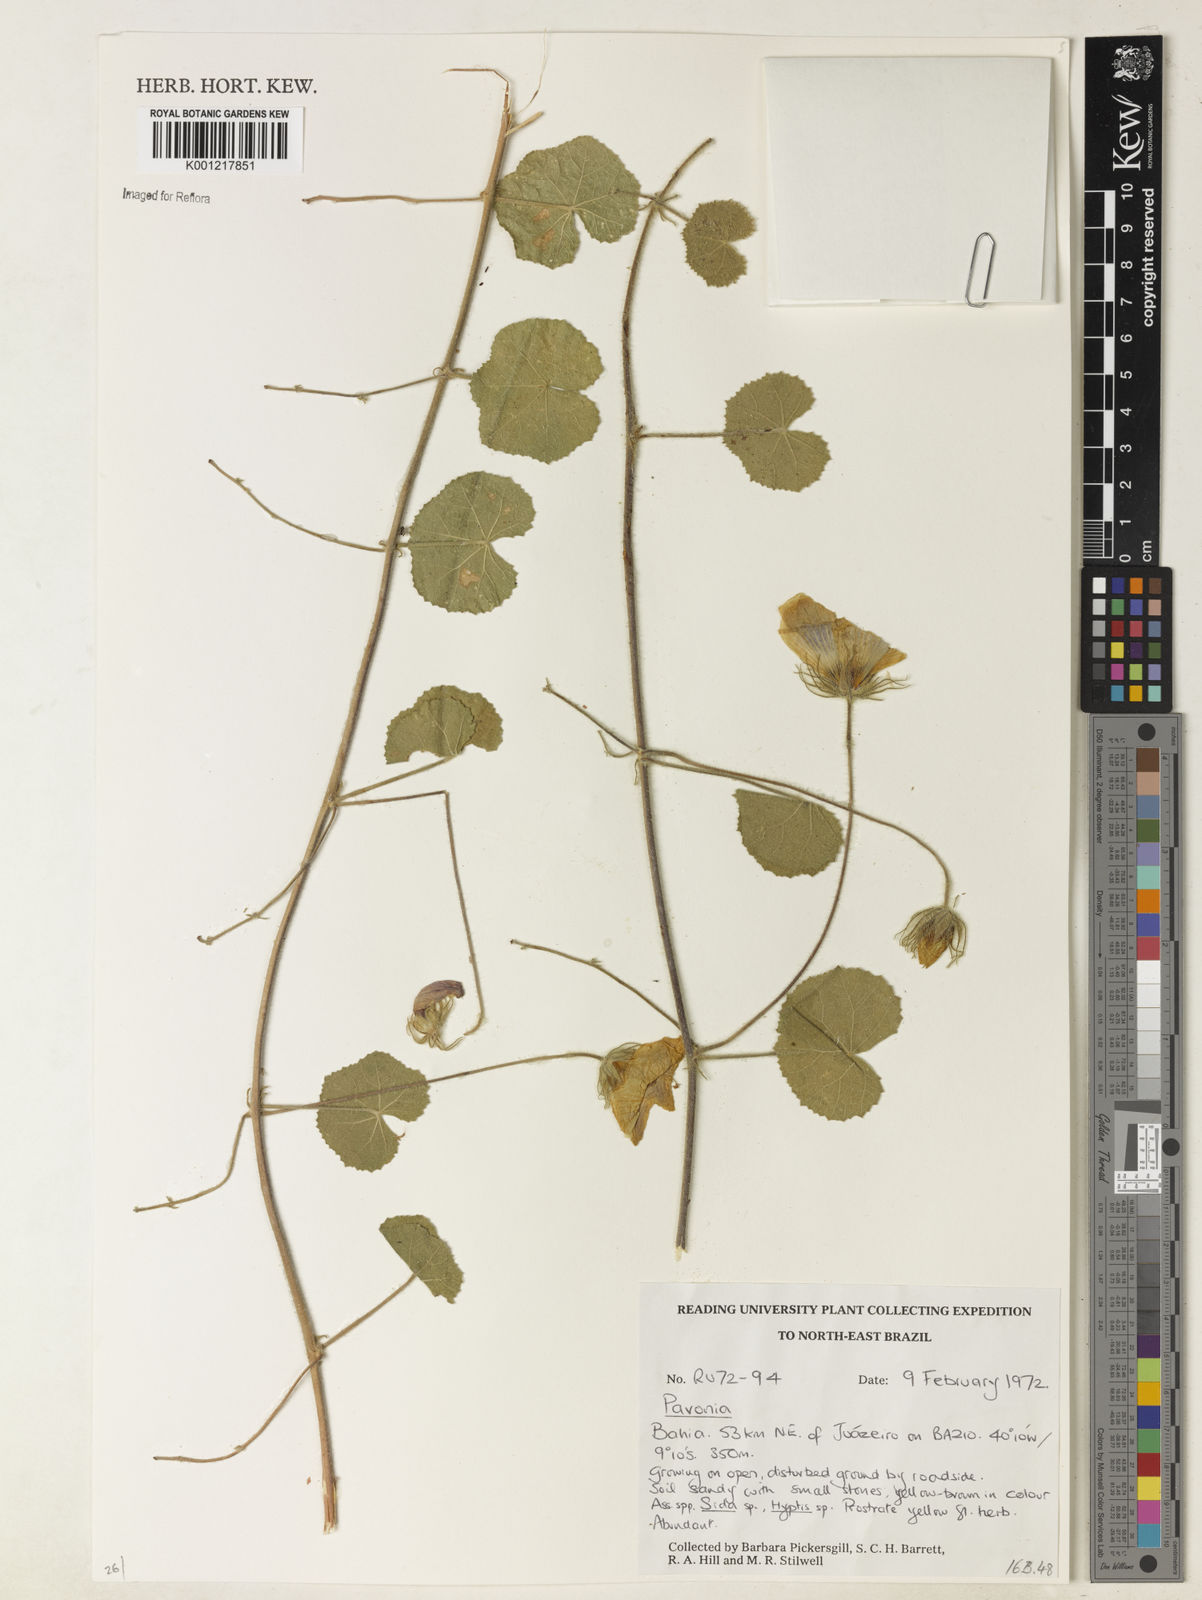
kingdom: Plantae
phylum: Tracheophyta
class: Magnoliopsida
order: Malvales
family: Malvaceae
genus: Pavonia
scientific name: Pavonia
